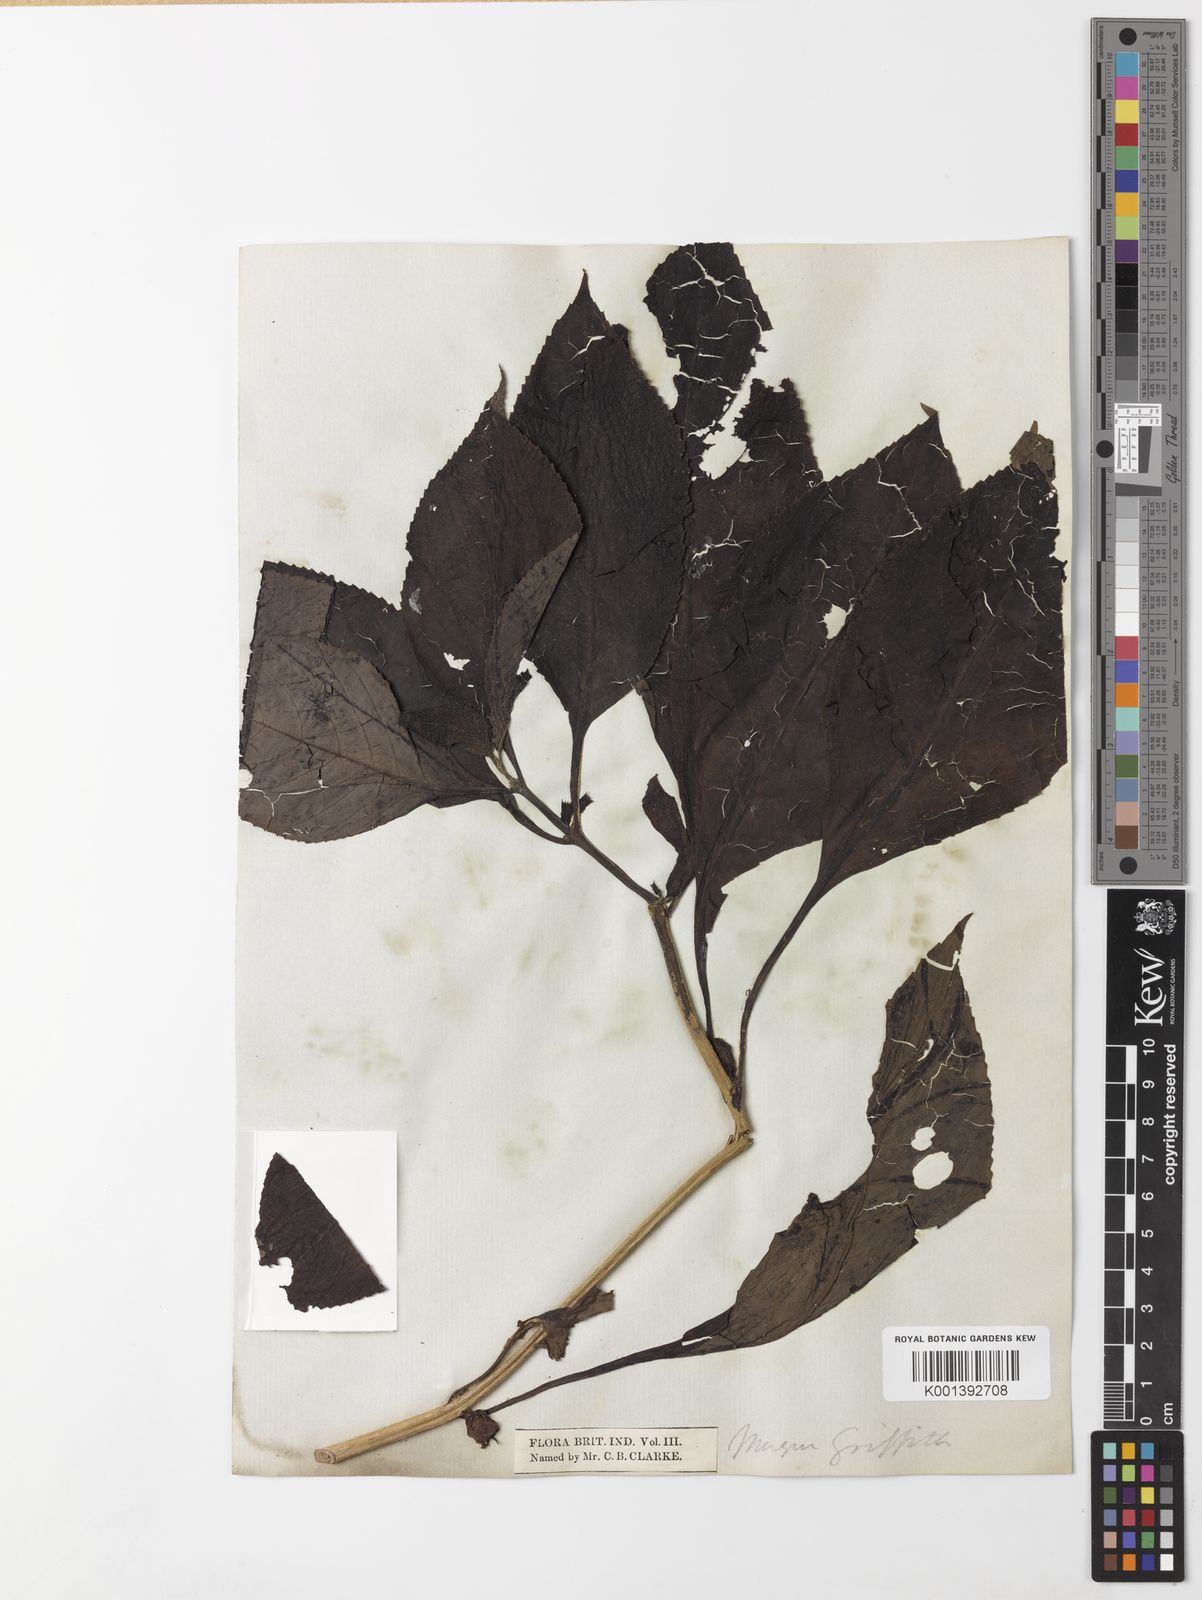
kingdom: Plantae
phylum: Tracheophyta
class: Magnoliopsida
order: Lamiales
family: Phrymaceae
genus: Cyrtandromoea
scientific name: Cyrtandromoea subsessilis
